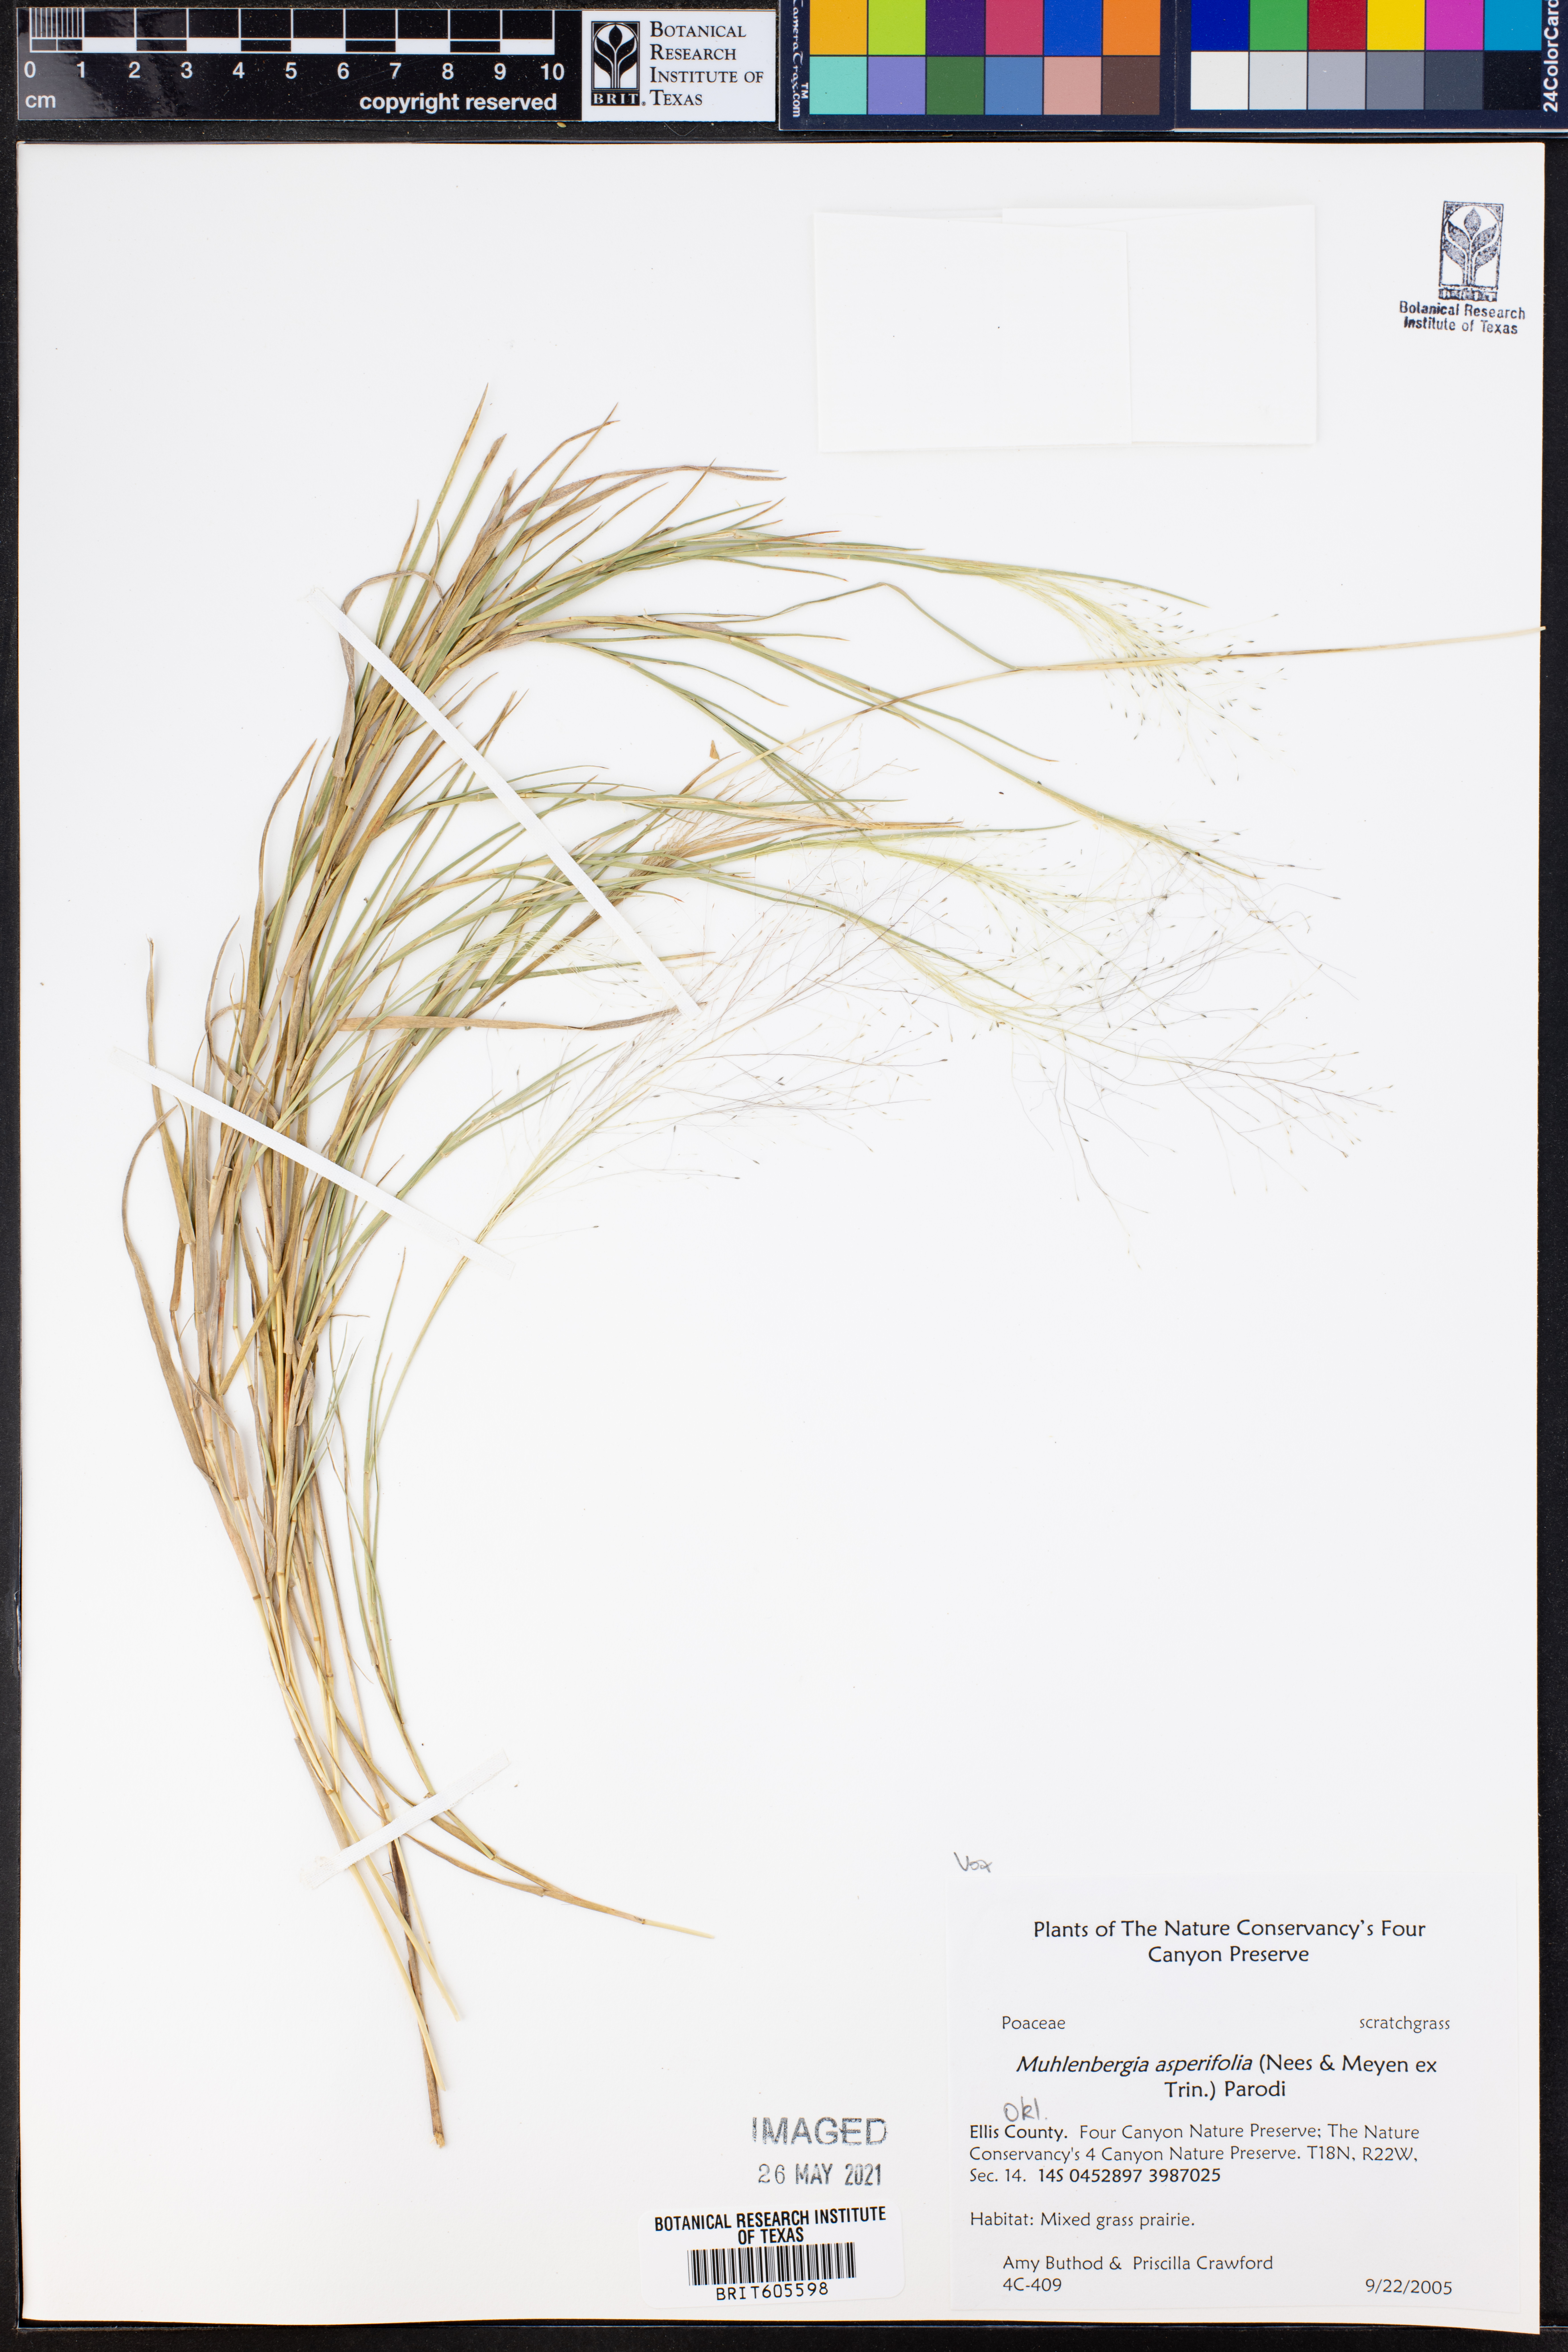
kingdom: Plantae
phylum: Tracheophyta
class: Liliopsida
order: Poales
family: Poaceae
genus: Muhlenbergia
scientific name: Muhlenbergia asperifolia
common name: Alkali muhly
